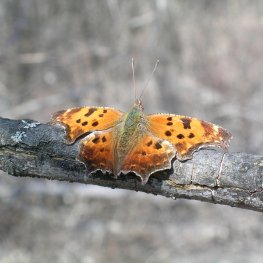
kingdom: Animalia
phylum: Arthropoda
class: Insecta
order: Lepidoptera
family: Nymphalidae
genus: Polygonia
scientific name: Polygonia comma
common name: Eastern Comma
